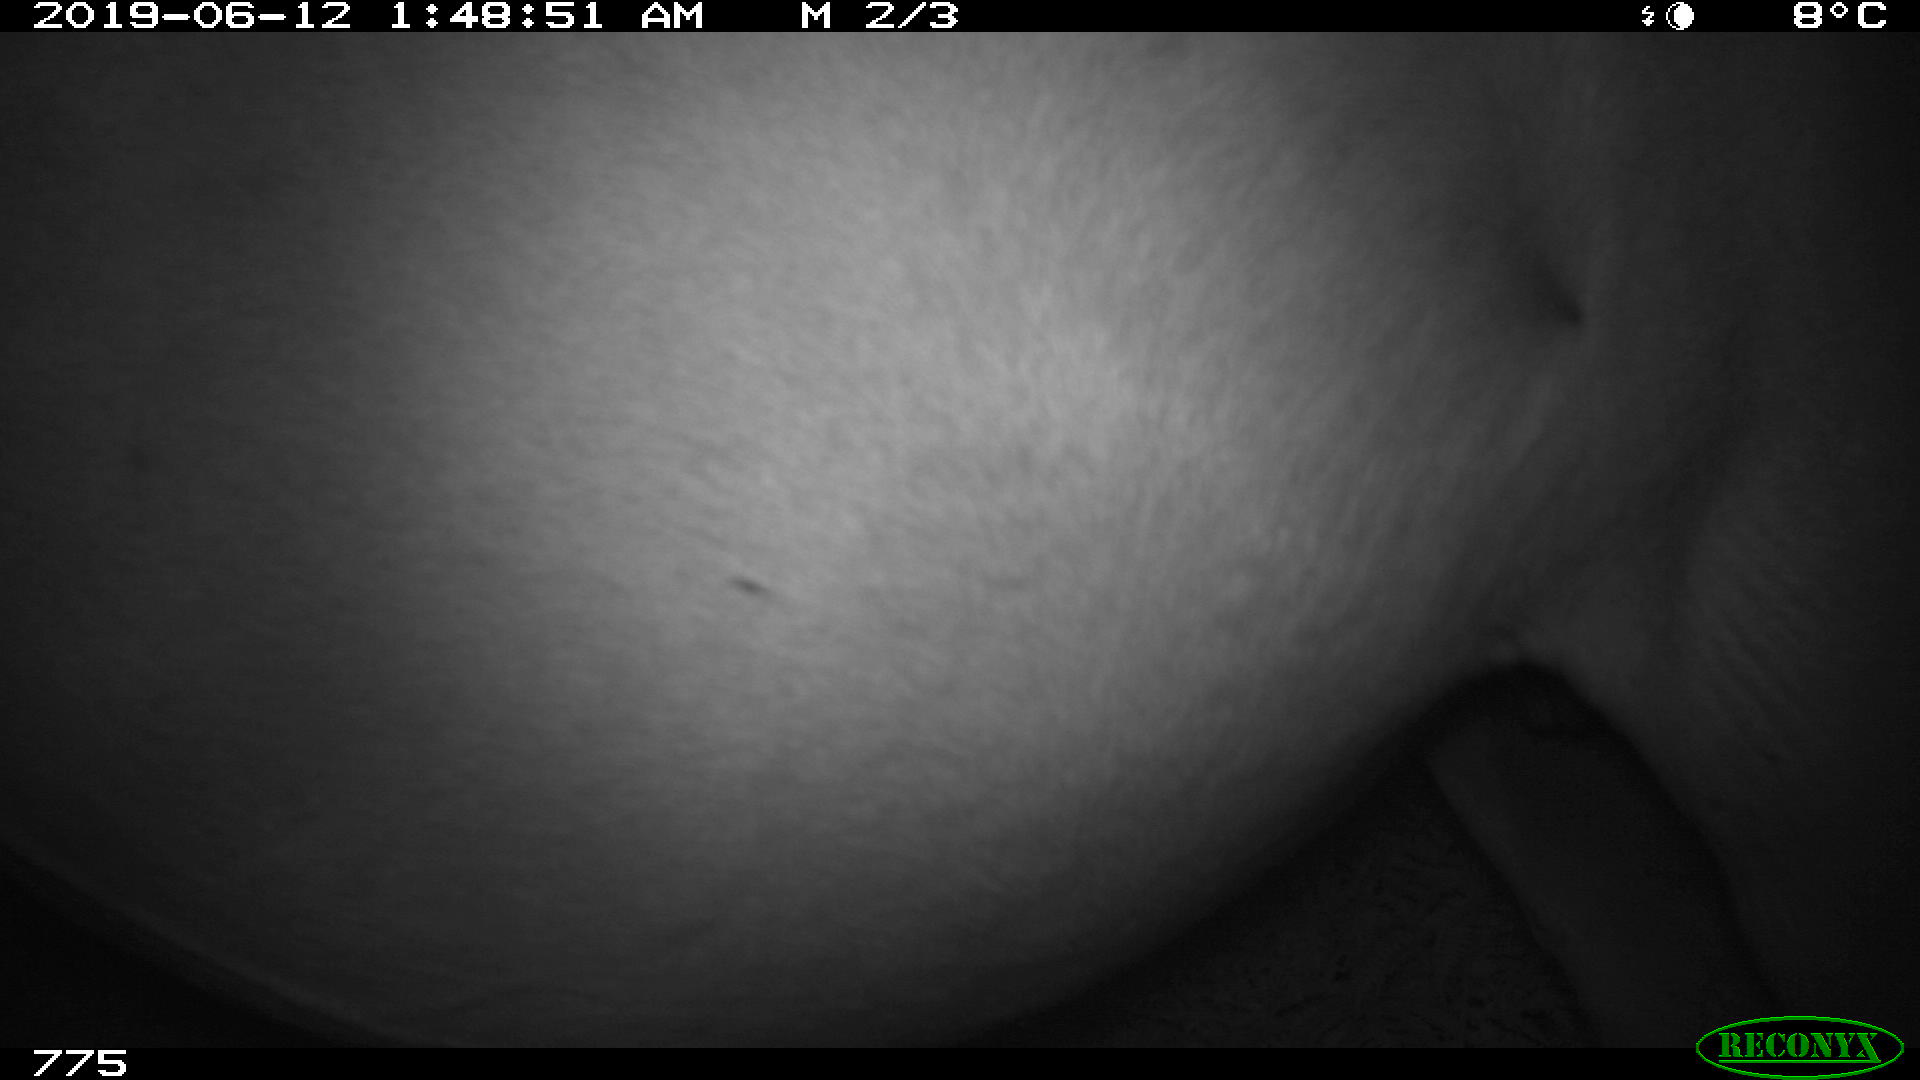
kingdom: Animalia
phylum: Chordata
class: Mammalia
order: Perissodactyla
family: Equidae
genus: Equus
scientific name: Equus caballus
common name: Horse
